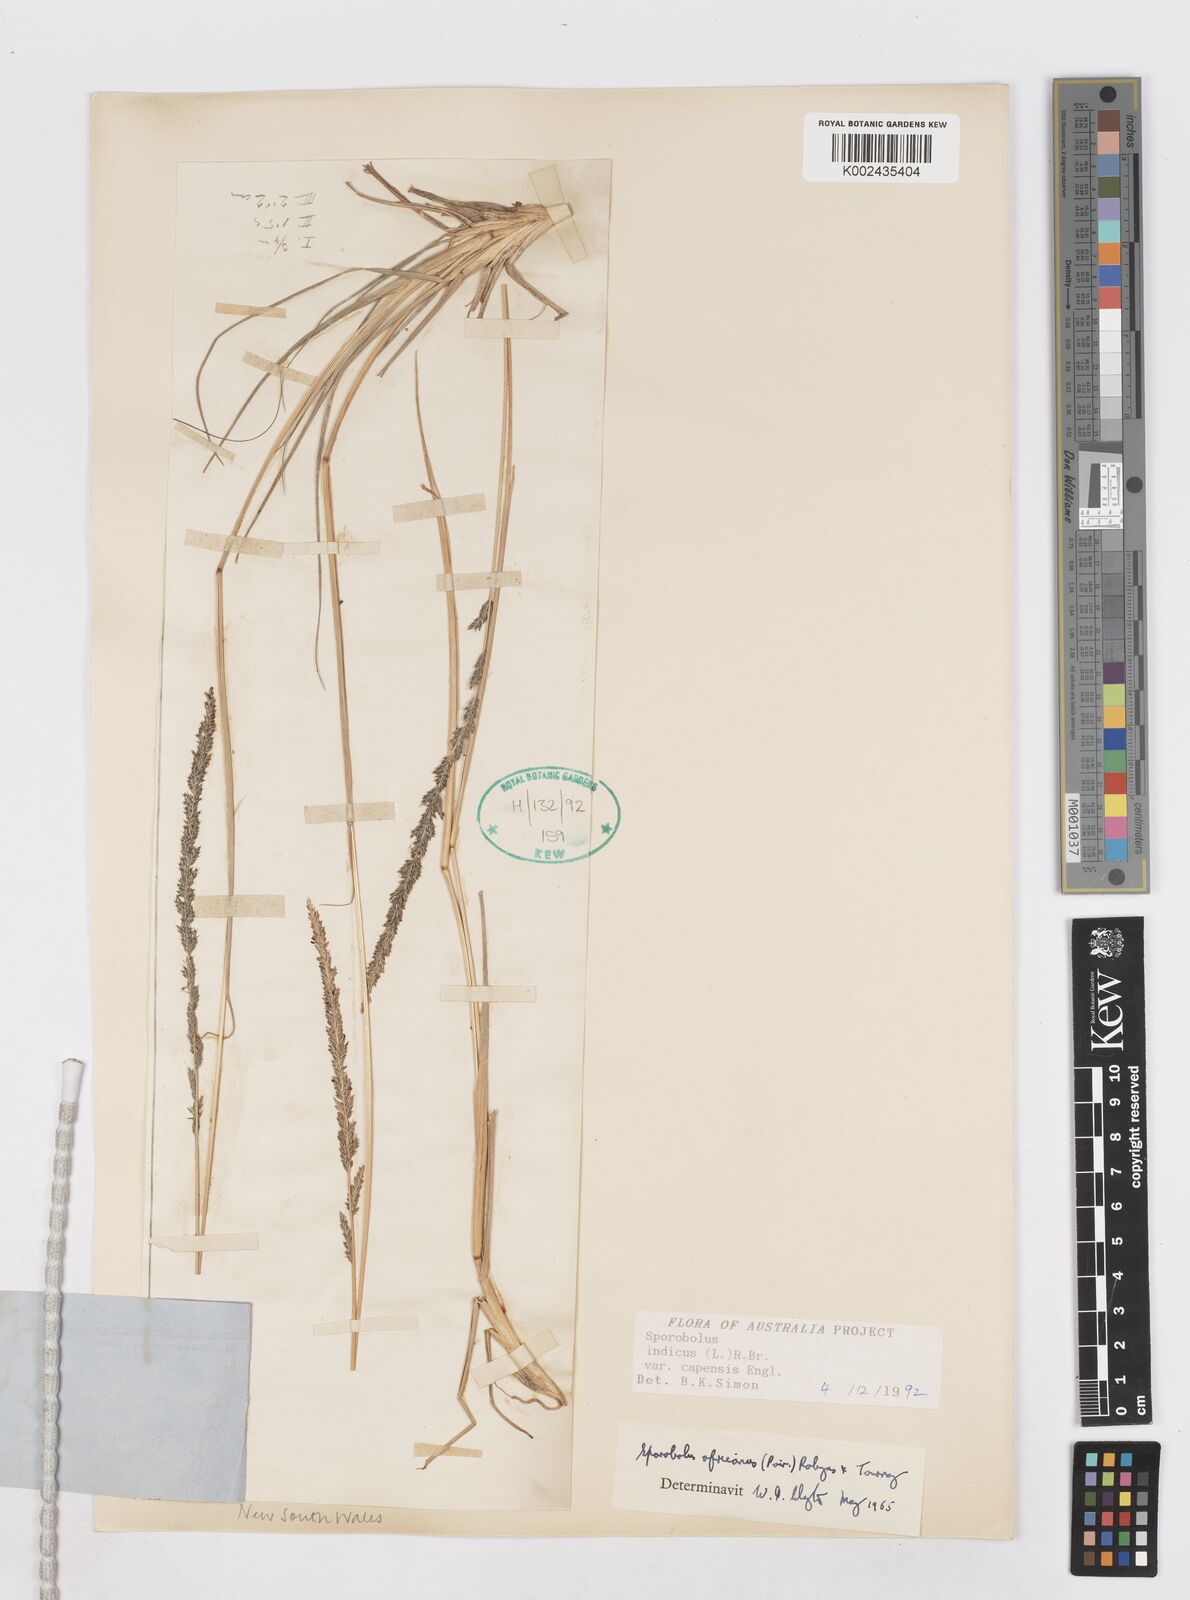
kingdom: Plantae
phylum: Tracheophyta
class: Liliopsida
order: Poales
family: Poaceae
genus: Sporobolus
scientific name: Sporobolus africanus
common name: African dropseed
